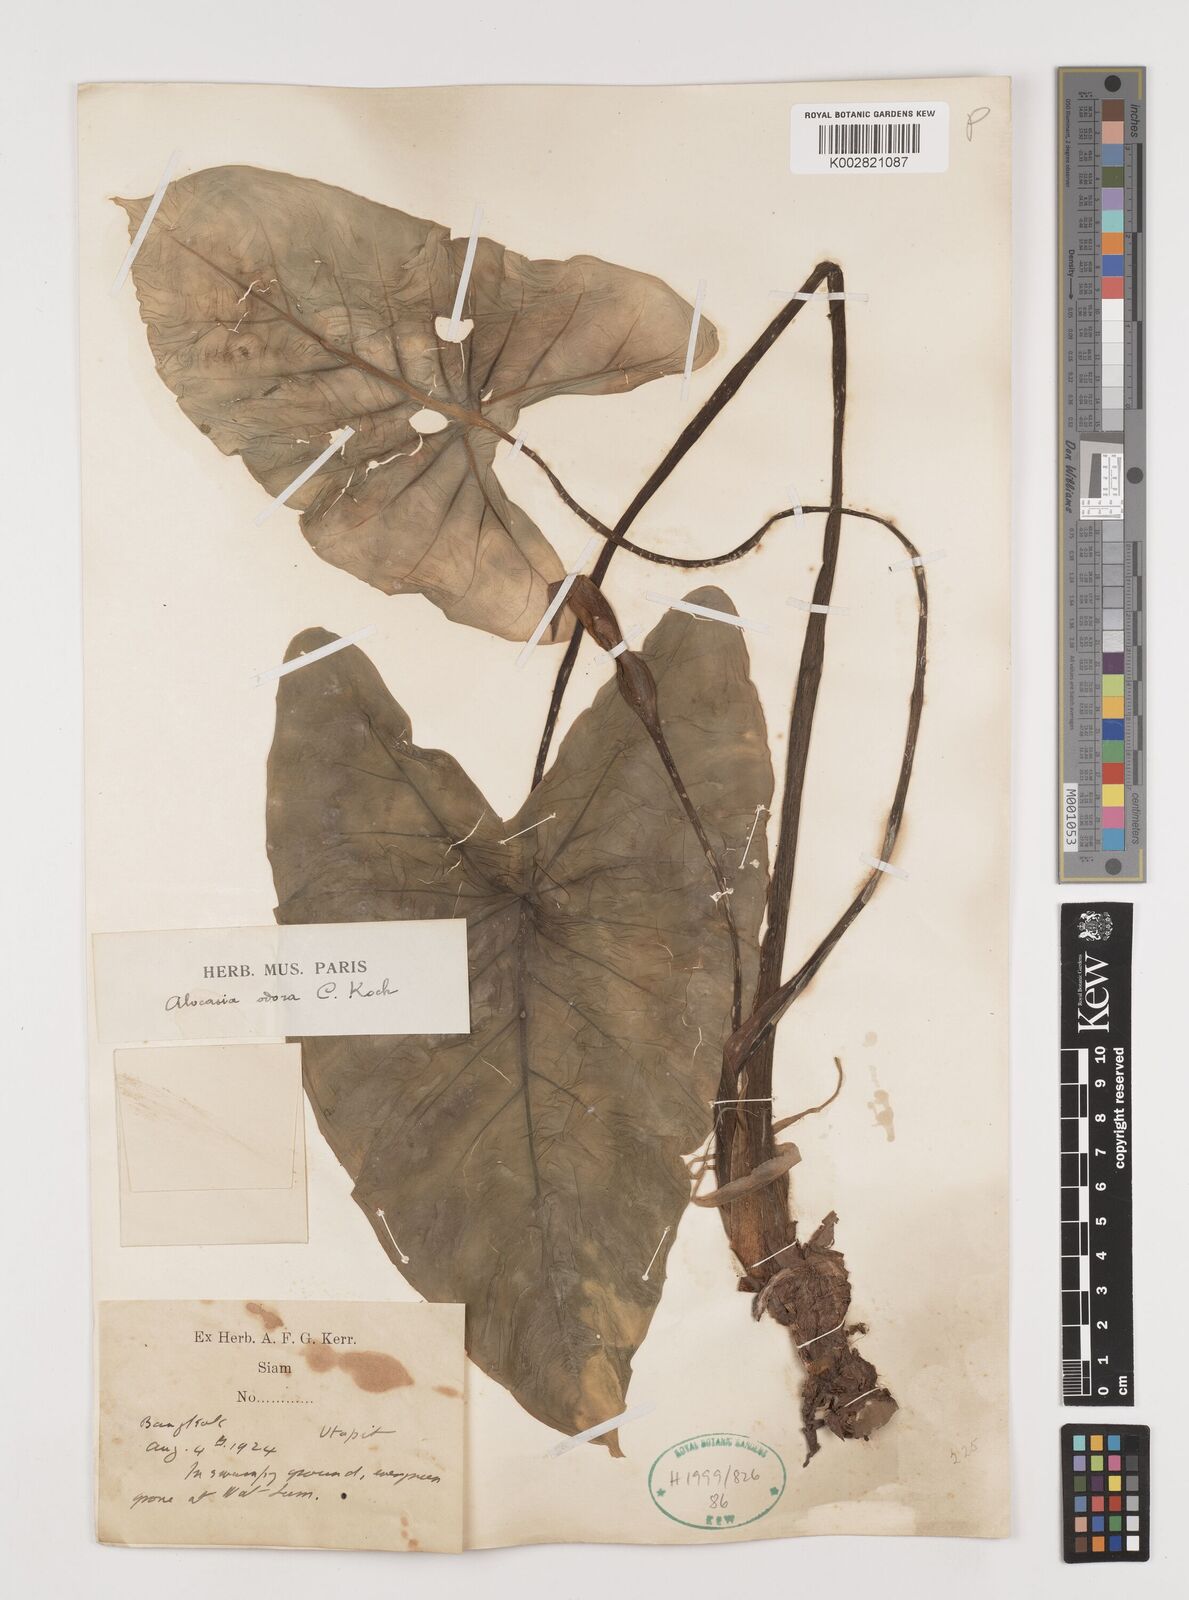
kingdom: Plantae
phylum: Tracheophyta
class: Liliopsida
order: Alismatales
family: Araceae
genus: Alocasia
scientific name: Alocasia
